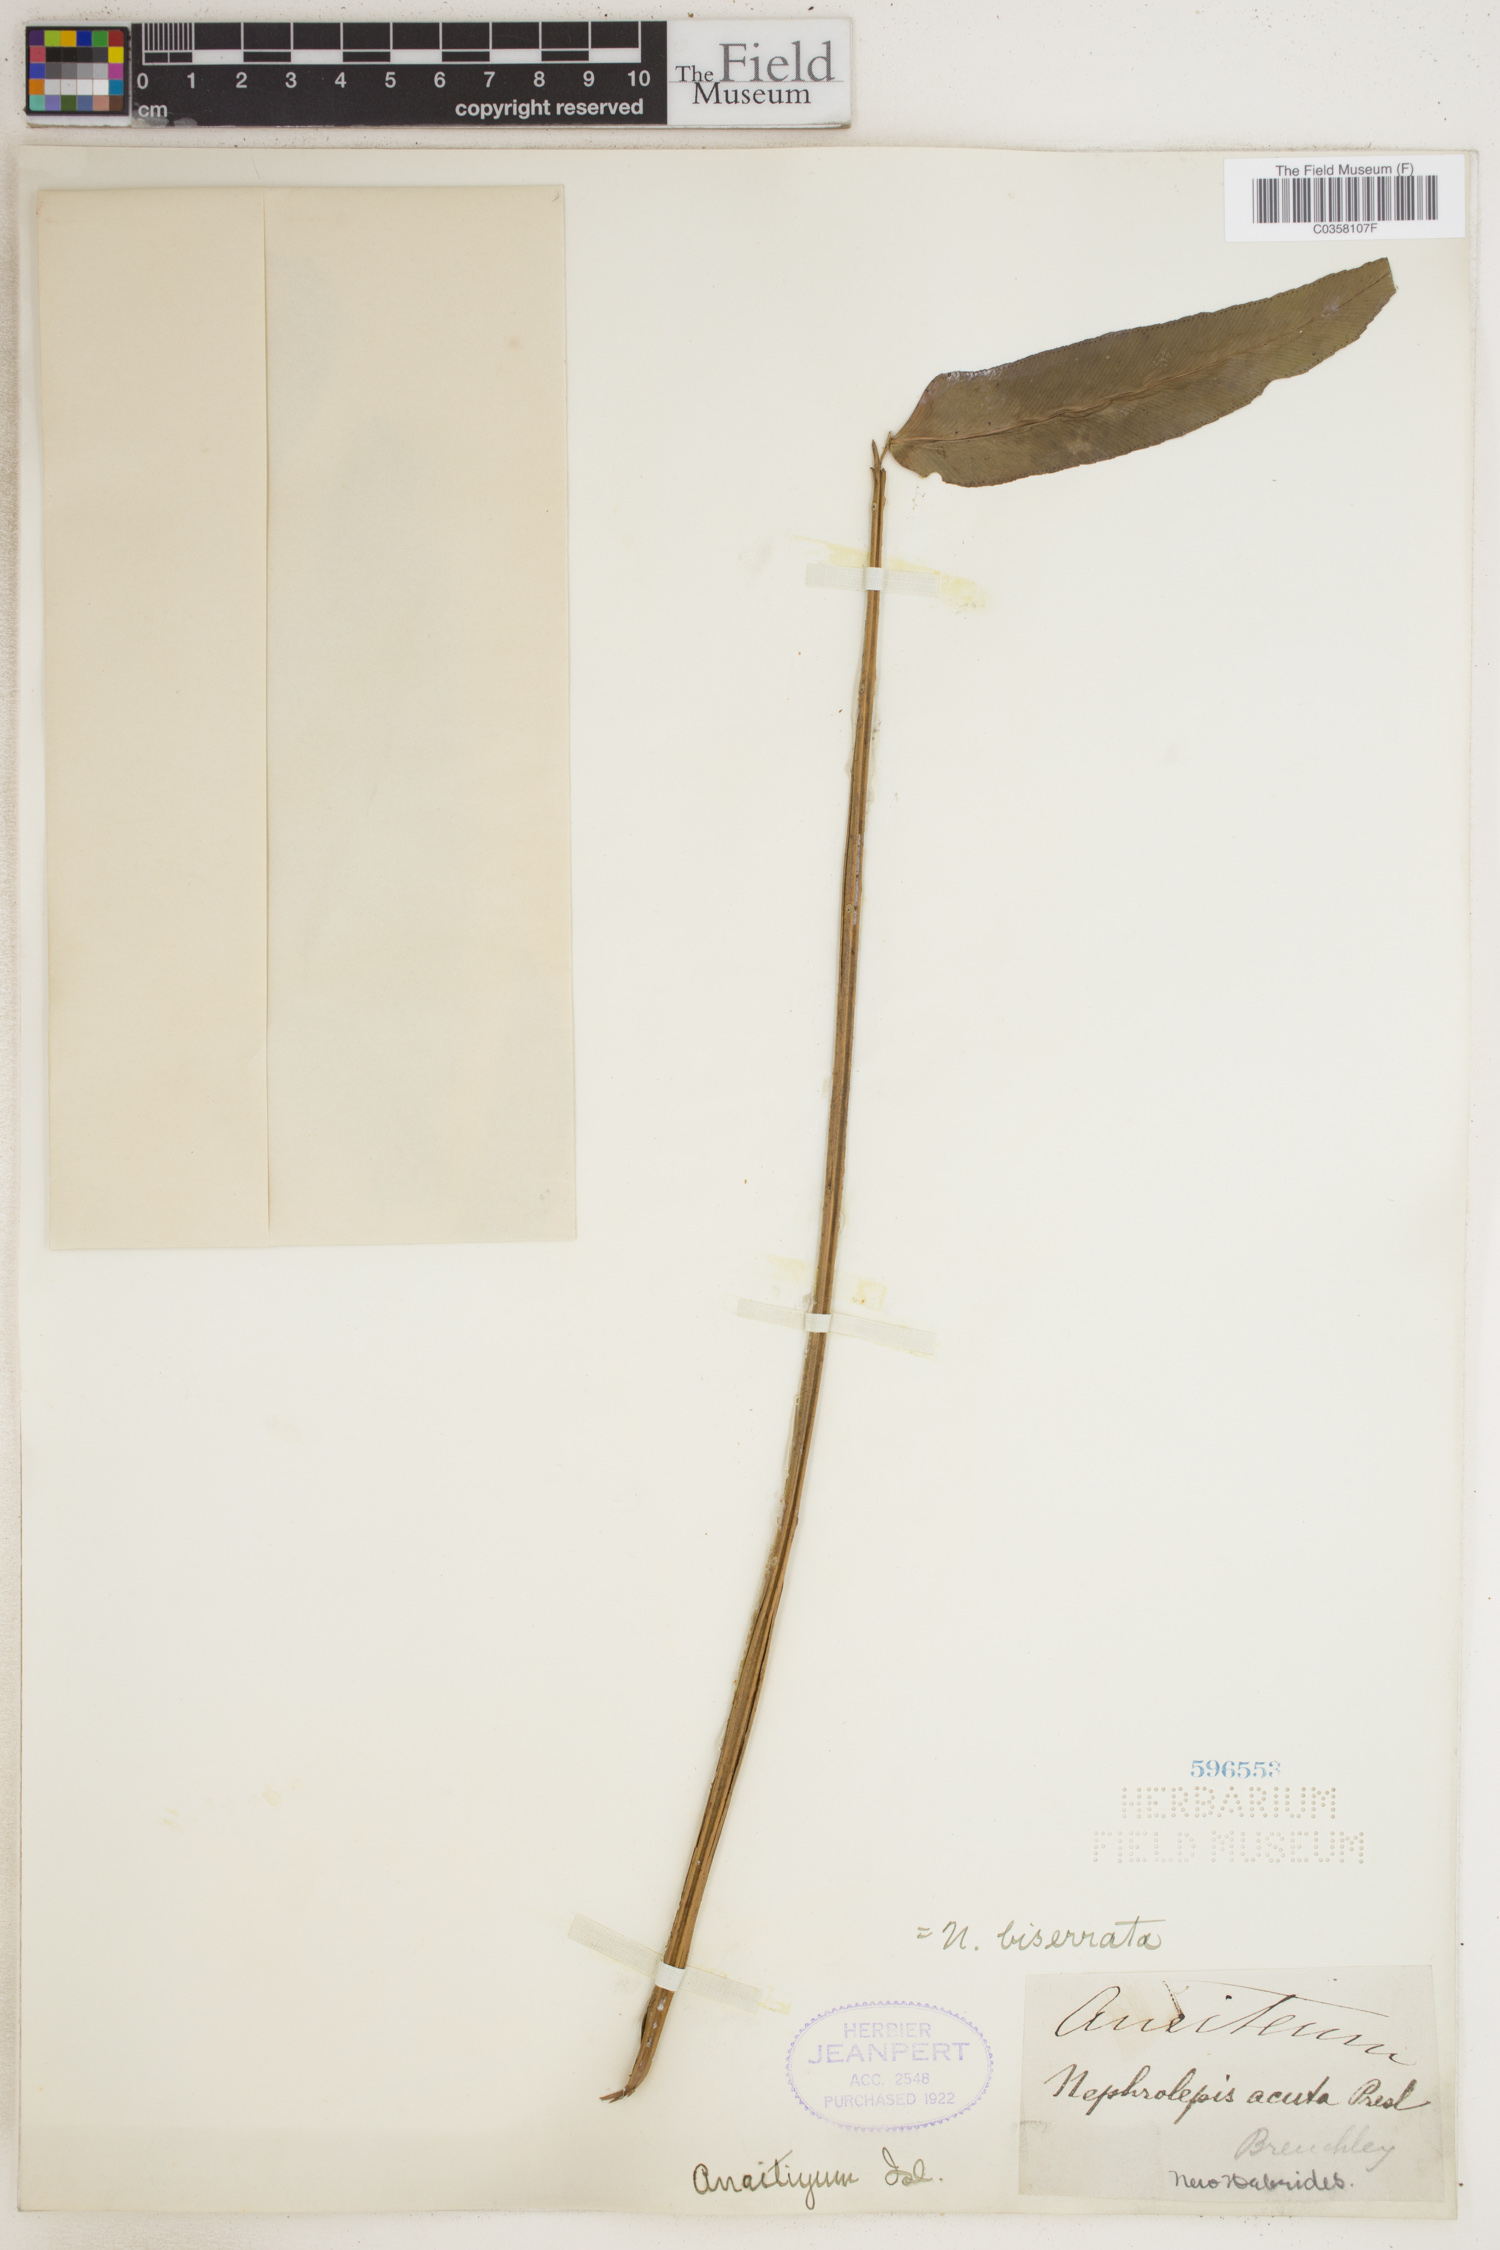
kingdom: Plantae
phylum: Tracheophyta
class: Polypodiopsida
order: Polypodiales
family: Nephrolepidaceae
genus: Nephrolepis
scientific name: Nephrolepis biserrata
